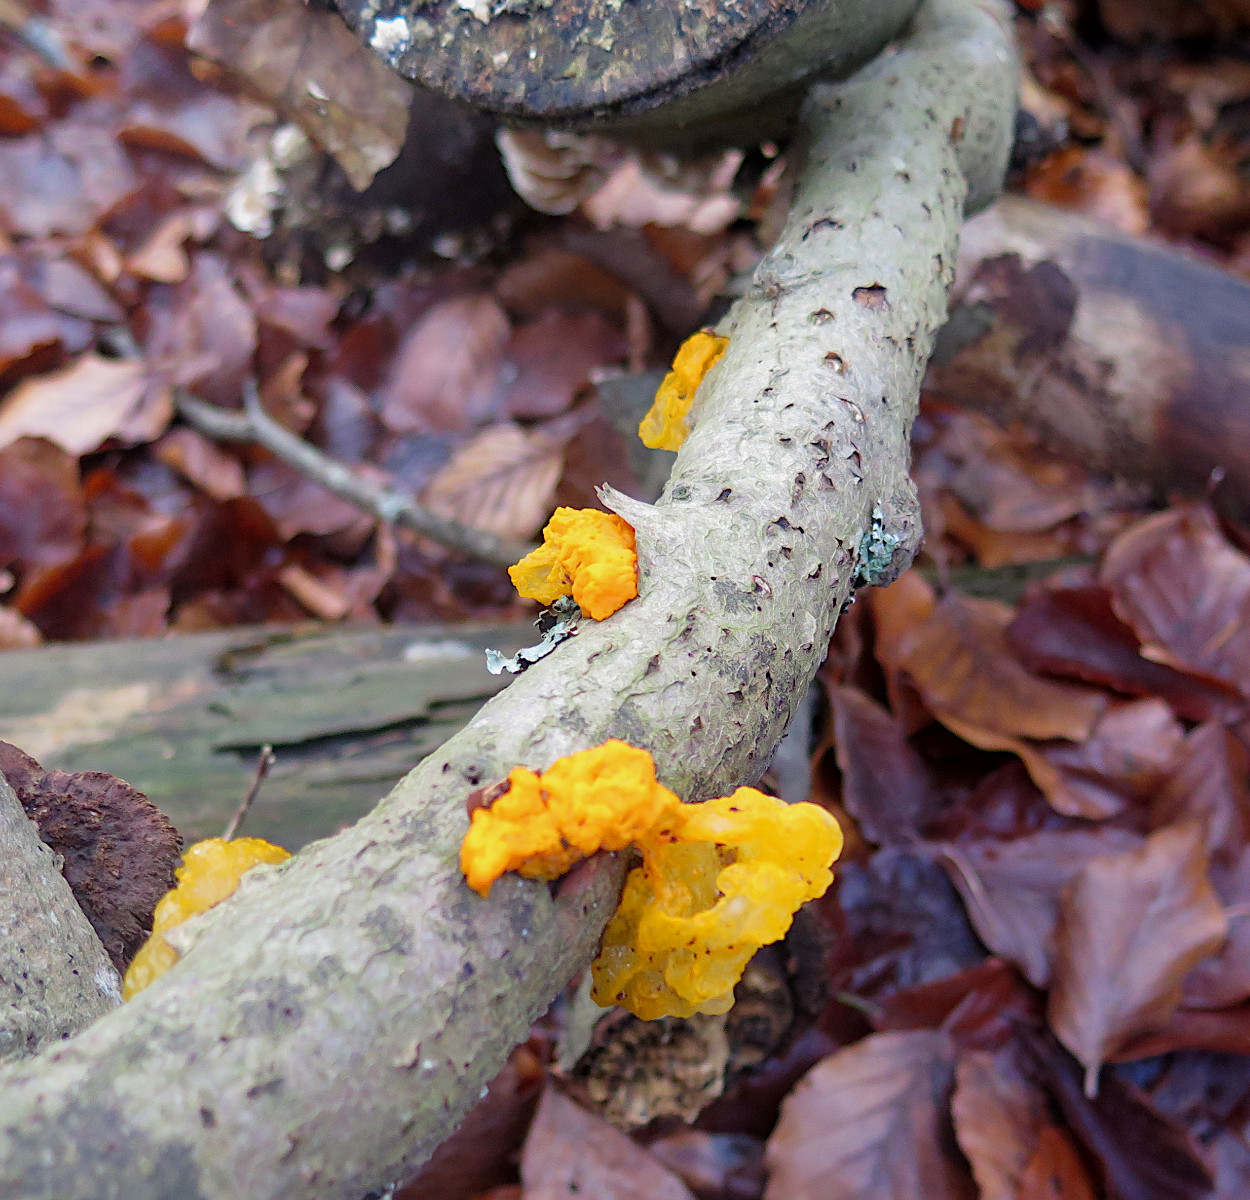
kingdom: Fungi
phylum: Basidiomycota
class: Tremellomycetes
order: Tremellales
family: Tremellaceae
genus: Tremella
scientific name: Tremella mesenterica
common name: gul bævresvamp
